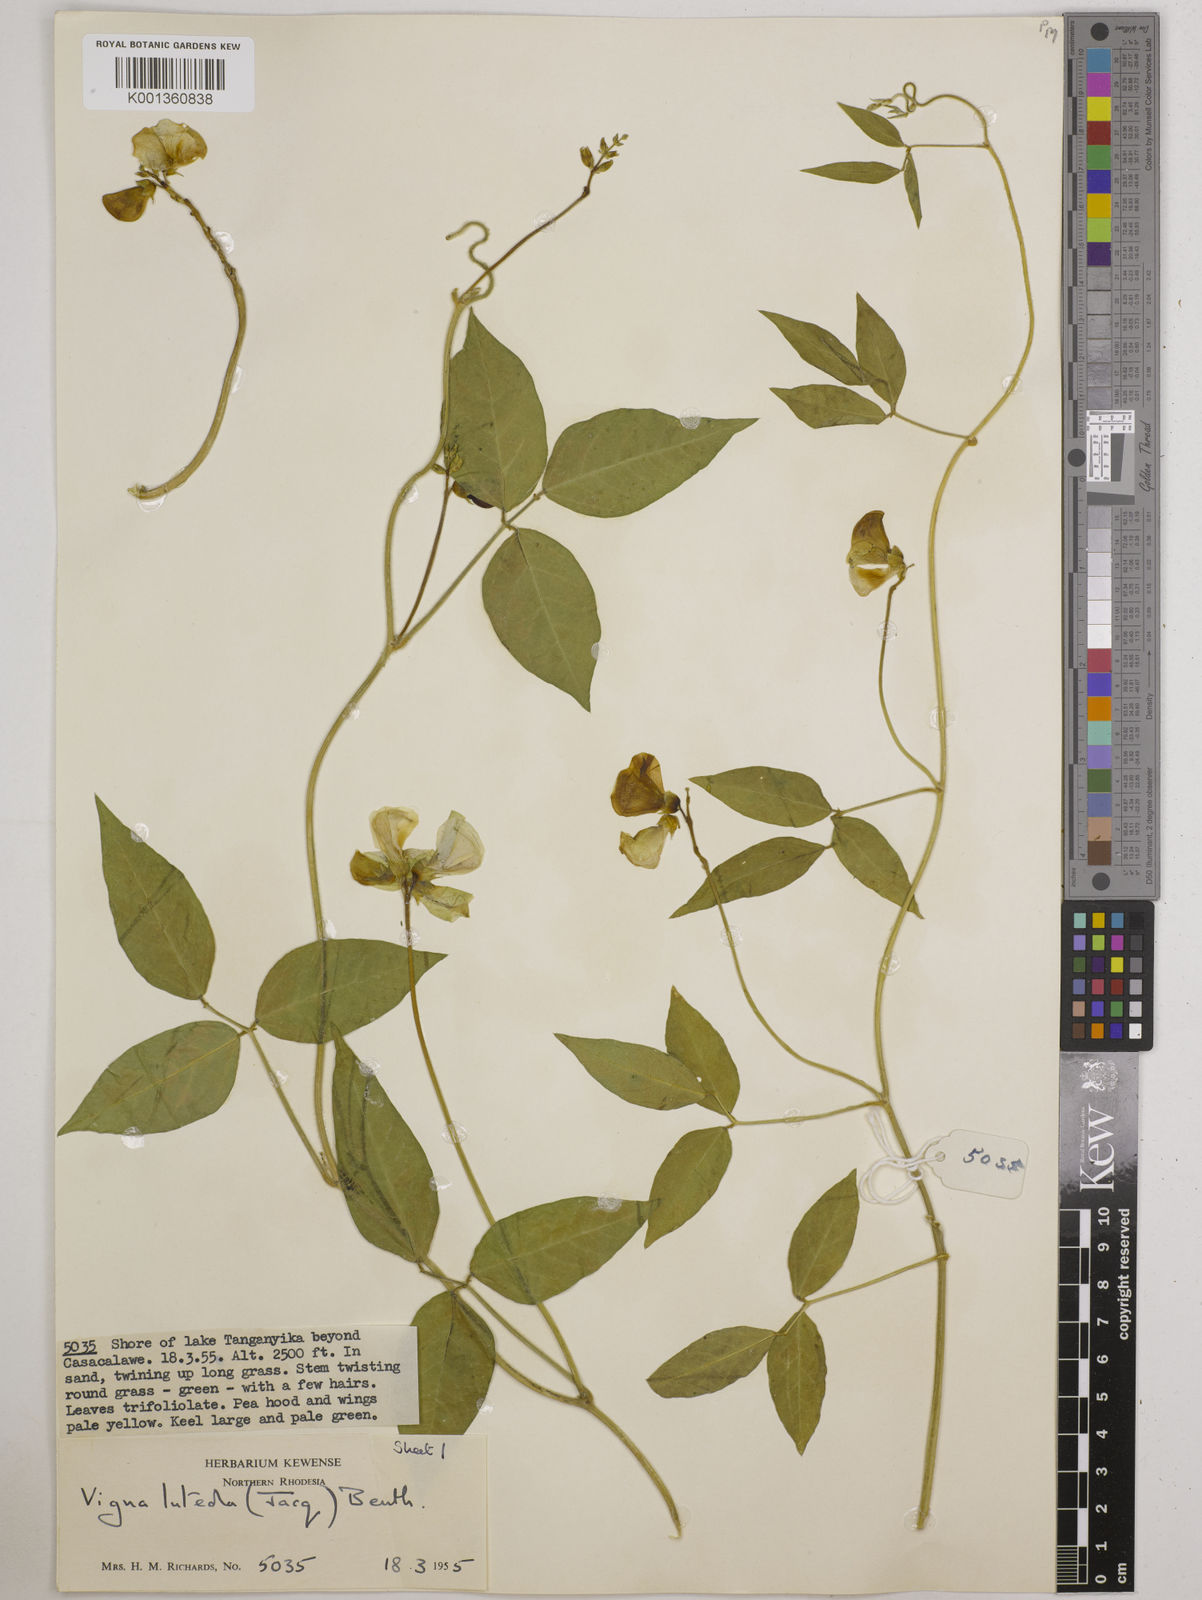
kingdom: Plantae
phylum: Tracheophyta
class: Magnoliopsida
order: Fabales
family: Fabaceae
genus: Vigna
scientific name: Vigna luteola
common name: Hairypod cowpea
